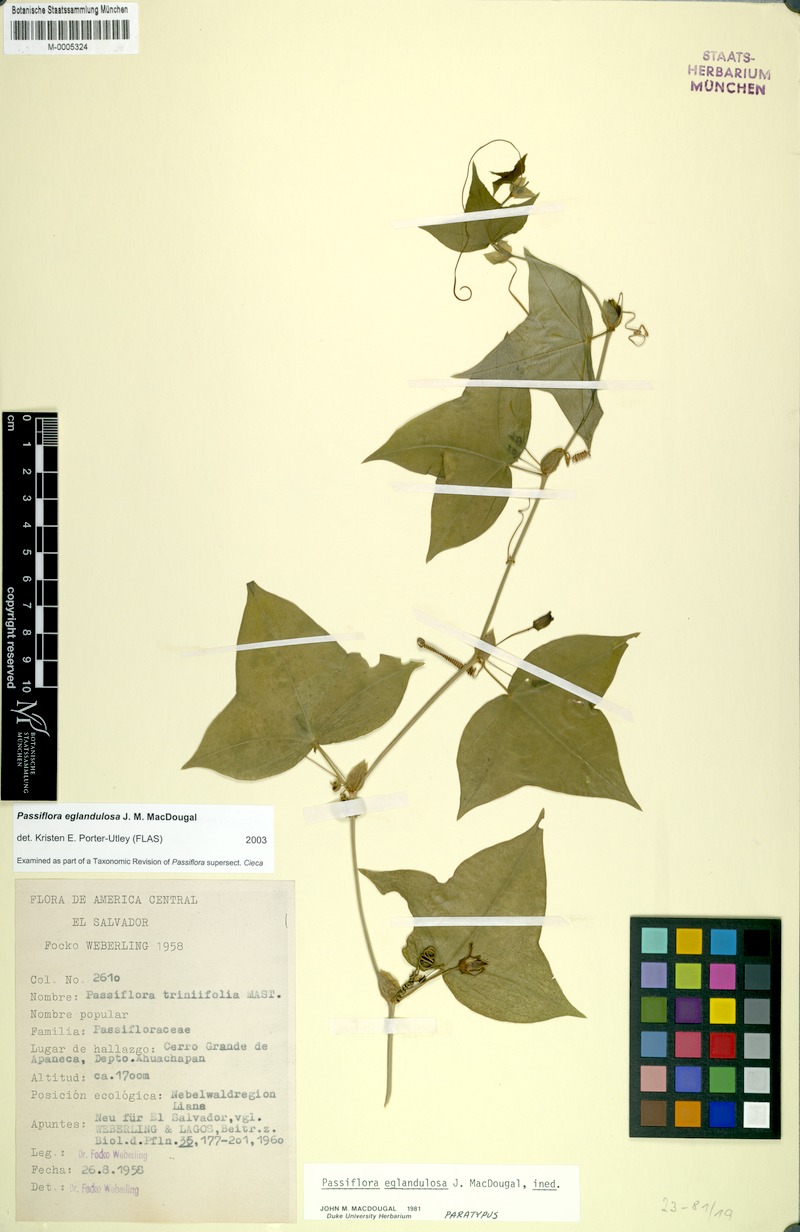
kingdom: Plantae
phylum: Tracheophyta
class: Magnoliopsida
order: Malpighiales
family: Passifloraceae
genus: Passiflora
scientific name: Passiflora eglandulosa
